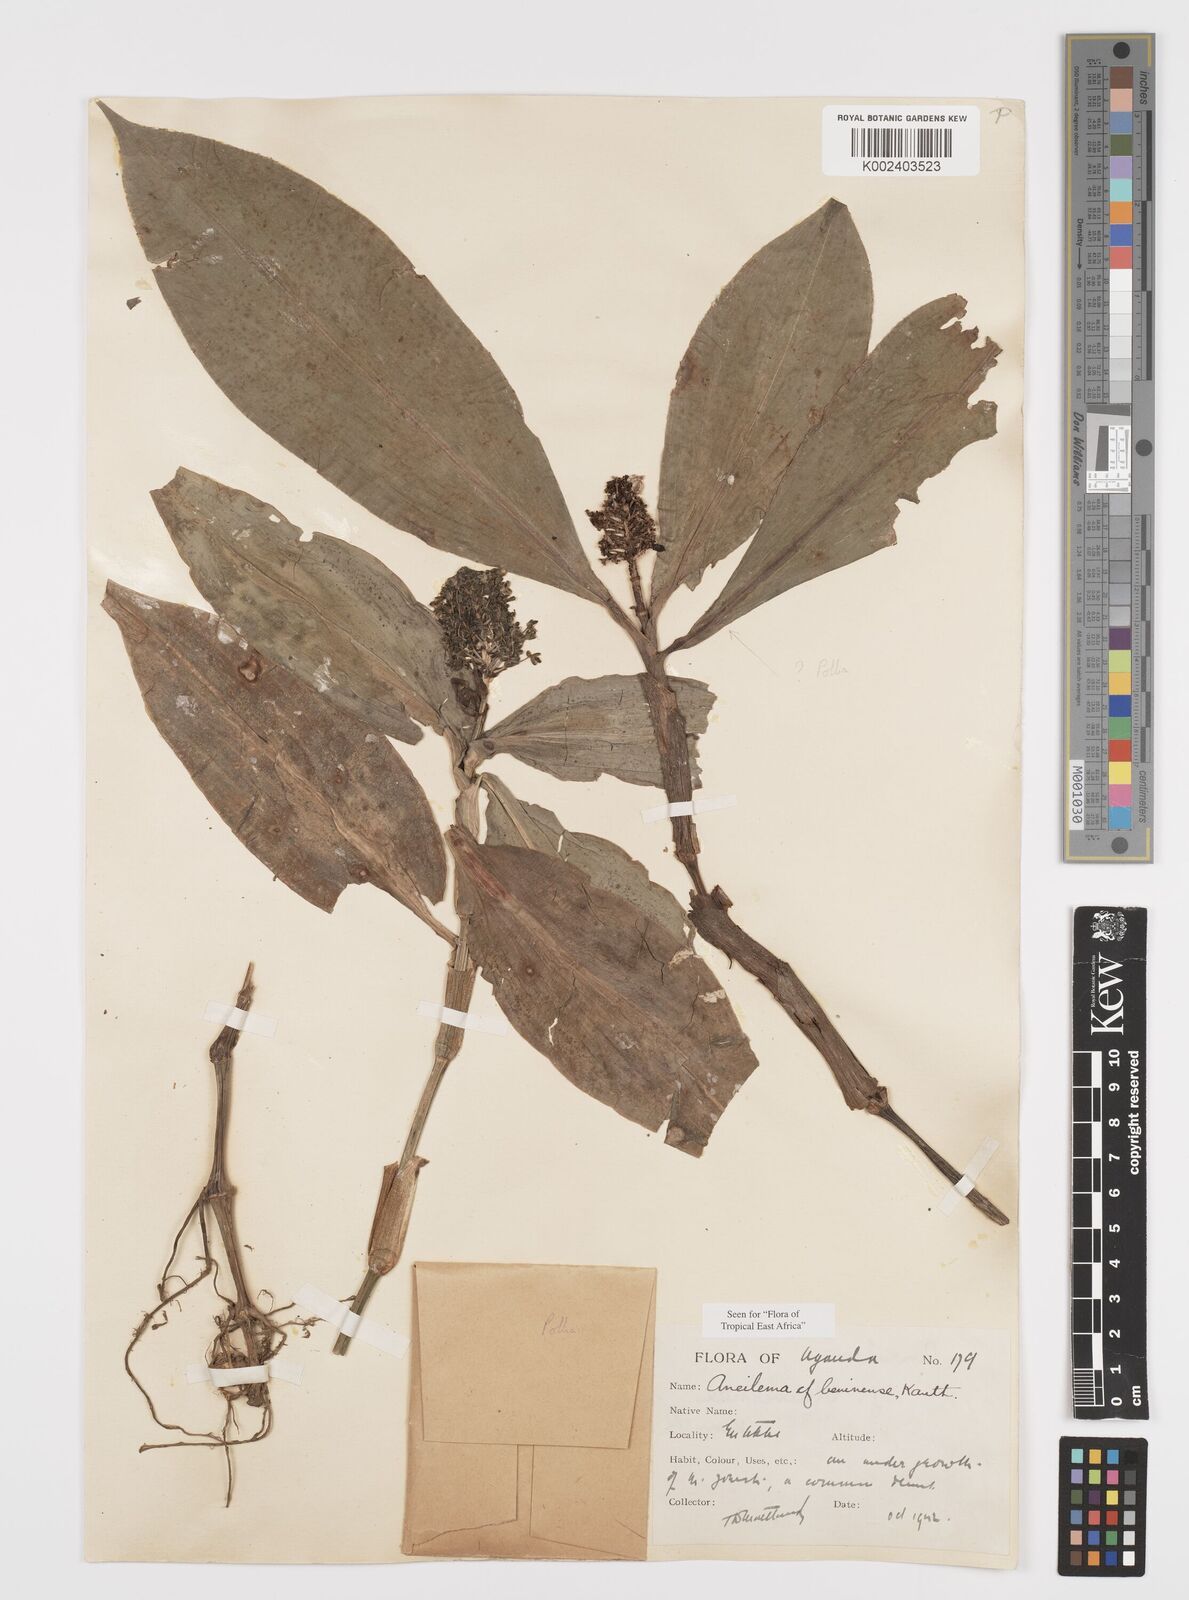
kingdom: Plantae
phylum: Tracheophyta
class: Liliopsida
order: Commelinales
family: Commelinaceae
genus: Aneilema
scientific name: Aneilema beniniense
